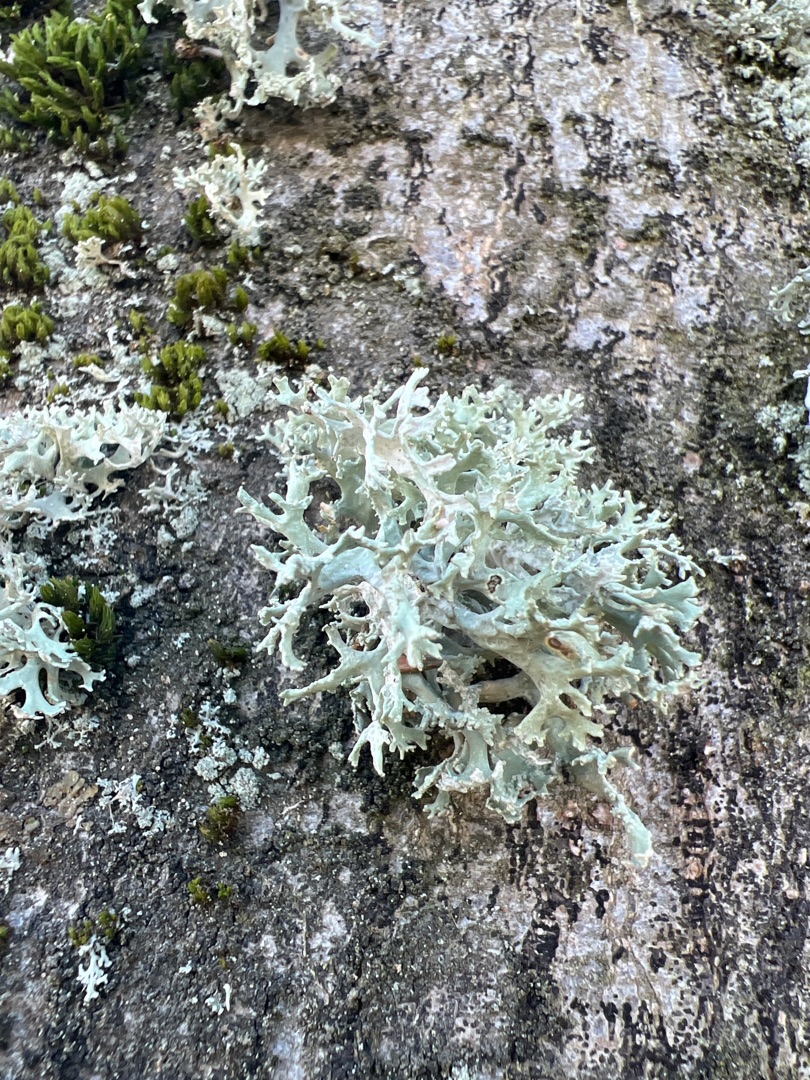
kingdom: Fungi
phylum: Ascomycota
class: Lecanoromycetes
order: Lecanorales
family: Parmeliaceae
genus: Evernia
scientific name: Evernia prunastri
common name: Almindelig slåenlav
